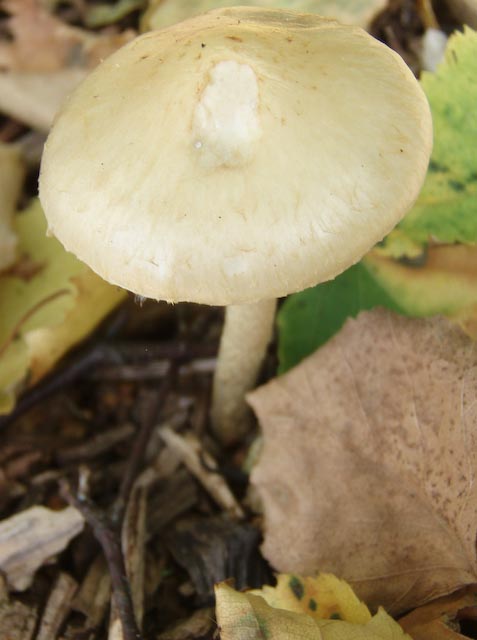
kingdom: Fungi
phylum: Basidiomycota
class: Agaricomycetes
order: Agaricales
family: Strophariaceae
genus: Leratiomyces
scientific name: Leratiomyces percevalii
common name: træflis-bredblad
